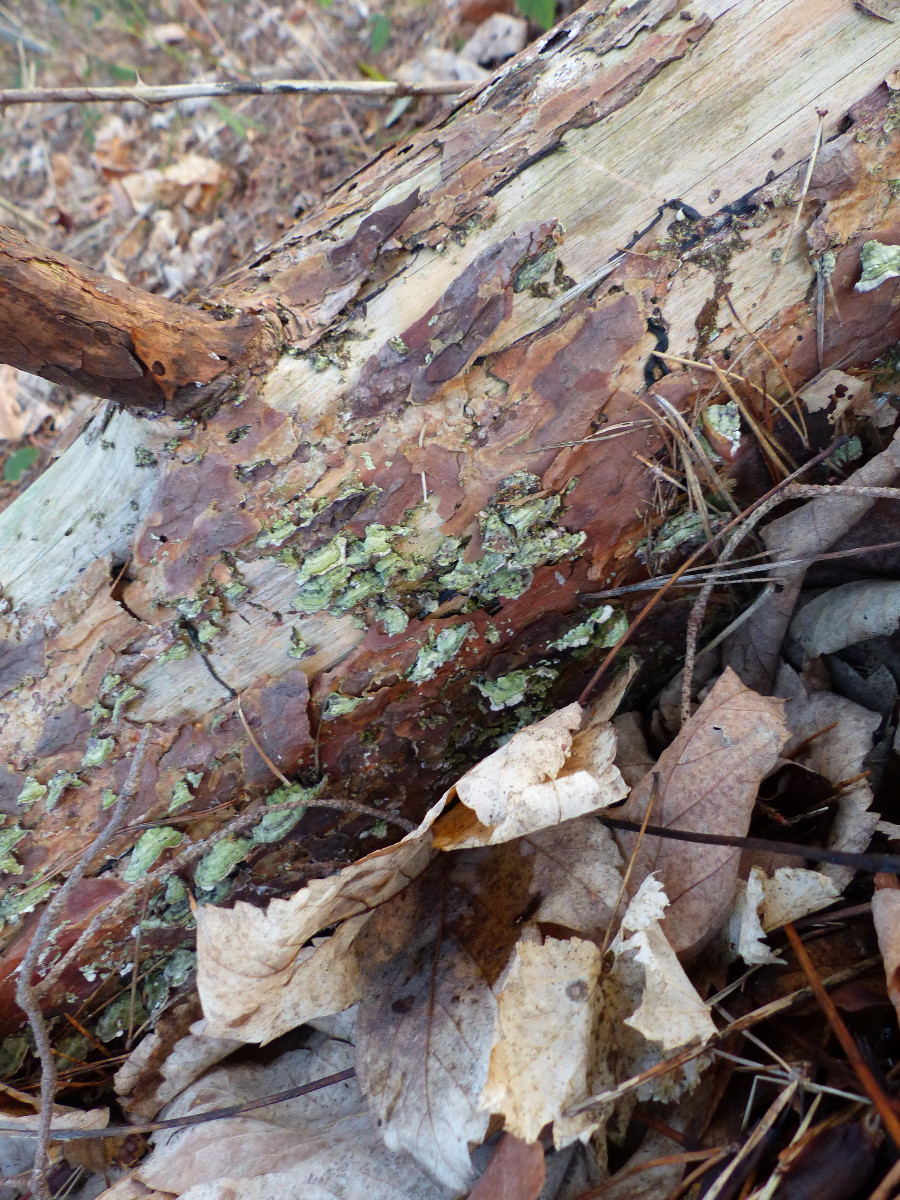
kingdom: Fungi
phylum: Basidiomycota
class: Agaricomycetes
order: Hymenochaetales
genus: Trichaptum
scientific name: Trichaptum fuscoviolaceum
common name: tandet violporesvamp
